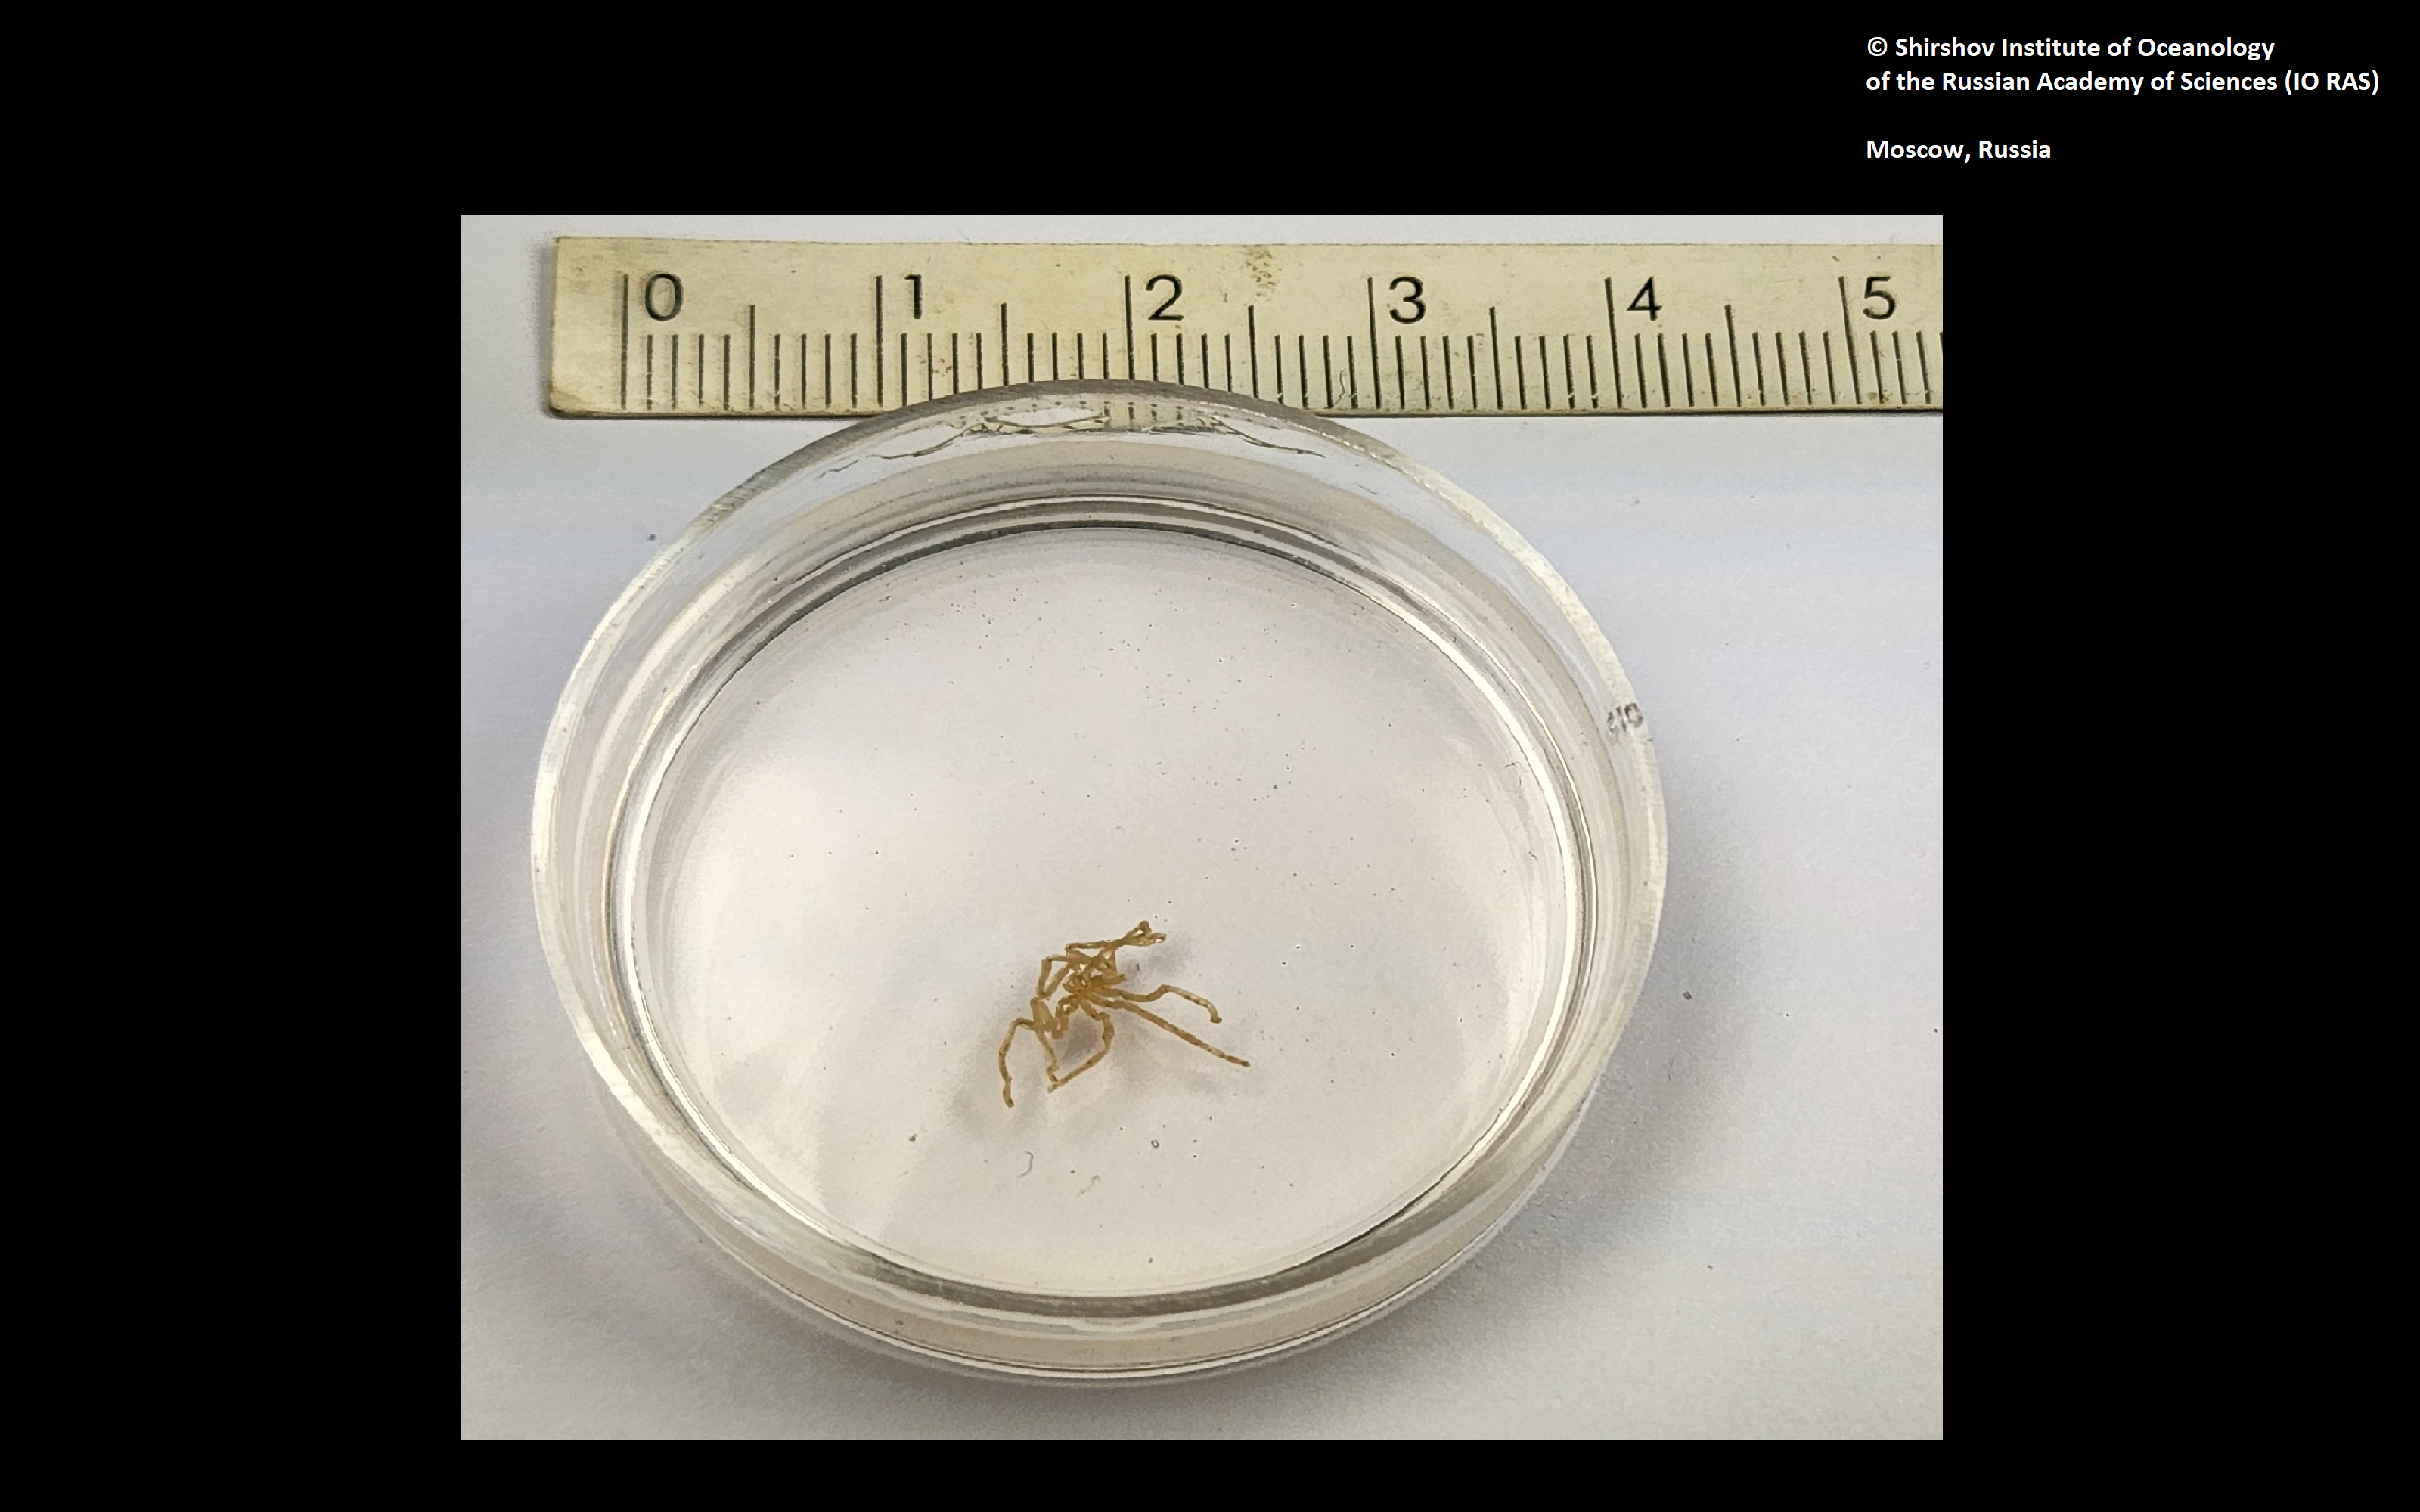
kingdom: Animalia
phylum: Arthropoda
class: Pycnogonida
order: Pantopoda
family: Phoxichilidiidae
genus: Phoxichilidium
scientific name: Phoxichilidium tuberungum
